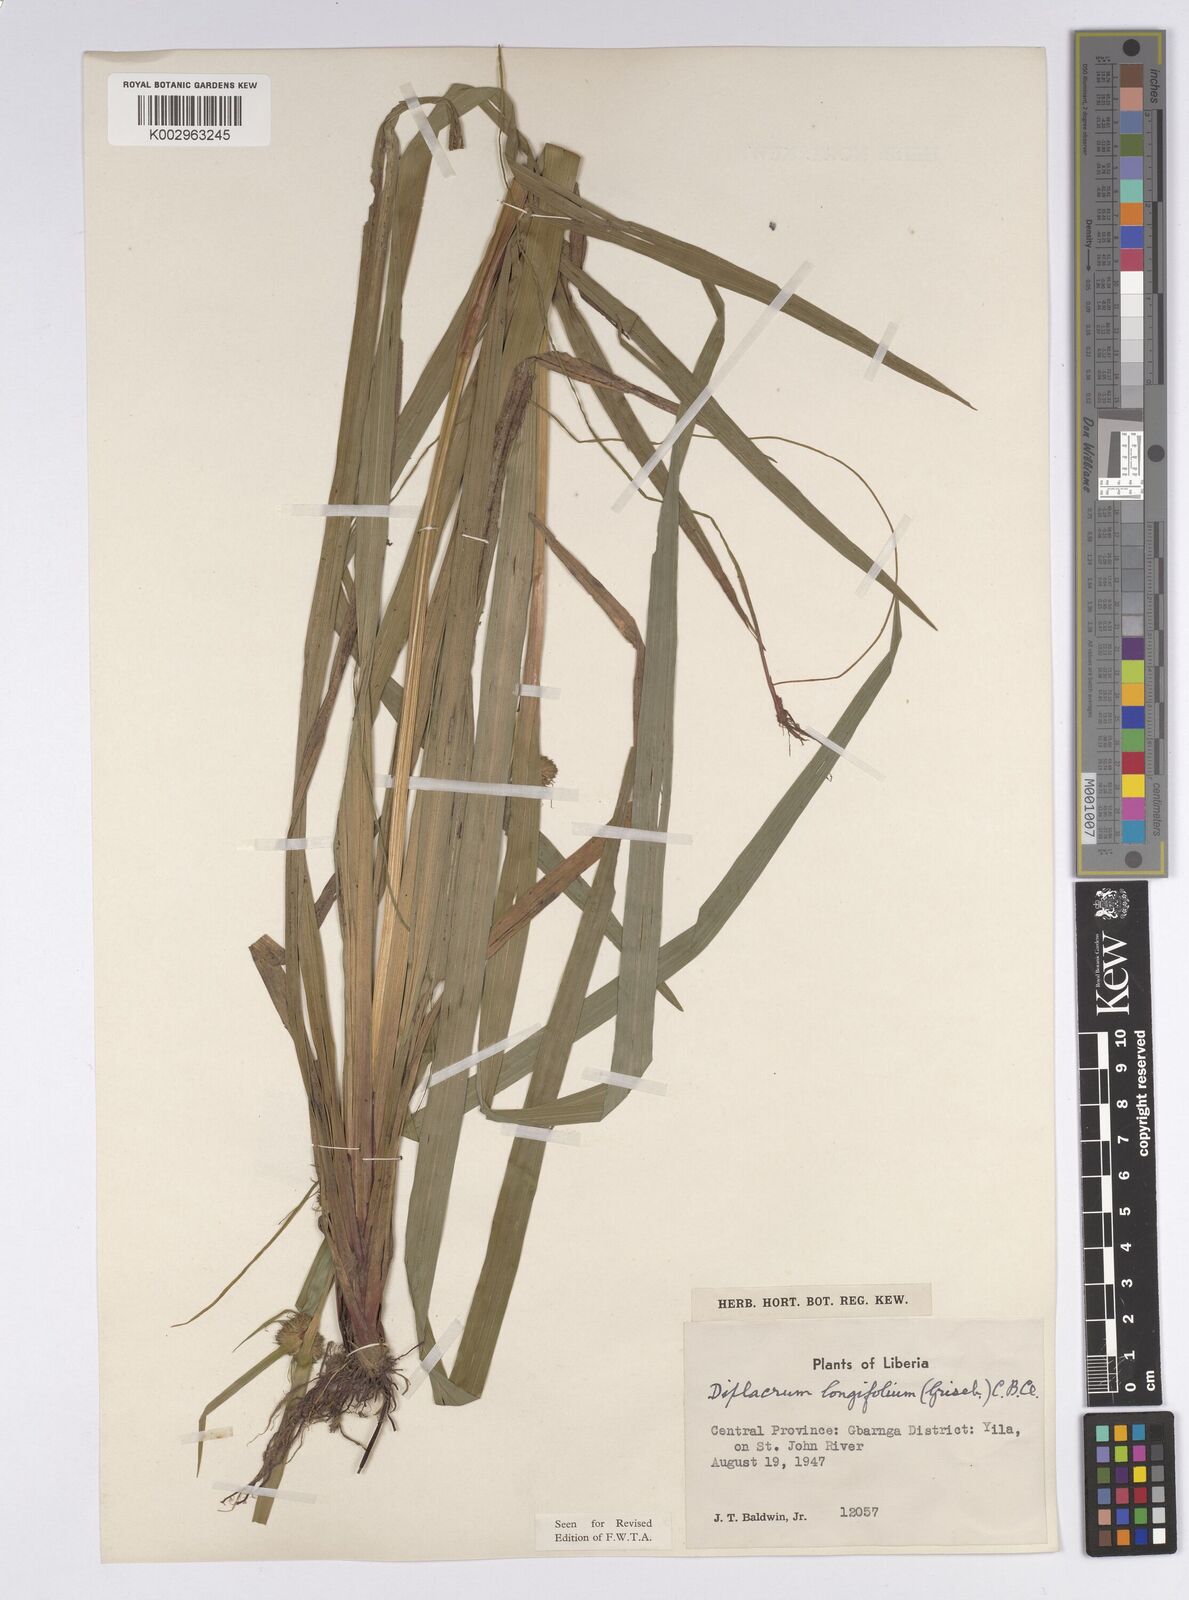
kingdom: Plantae
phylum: Tracheophyta
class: Liliopsida
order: Poales
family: Cyperaceae
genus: Diplacrum
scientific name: Diplacrum capitatum
